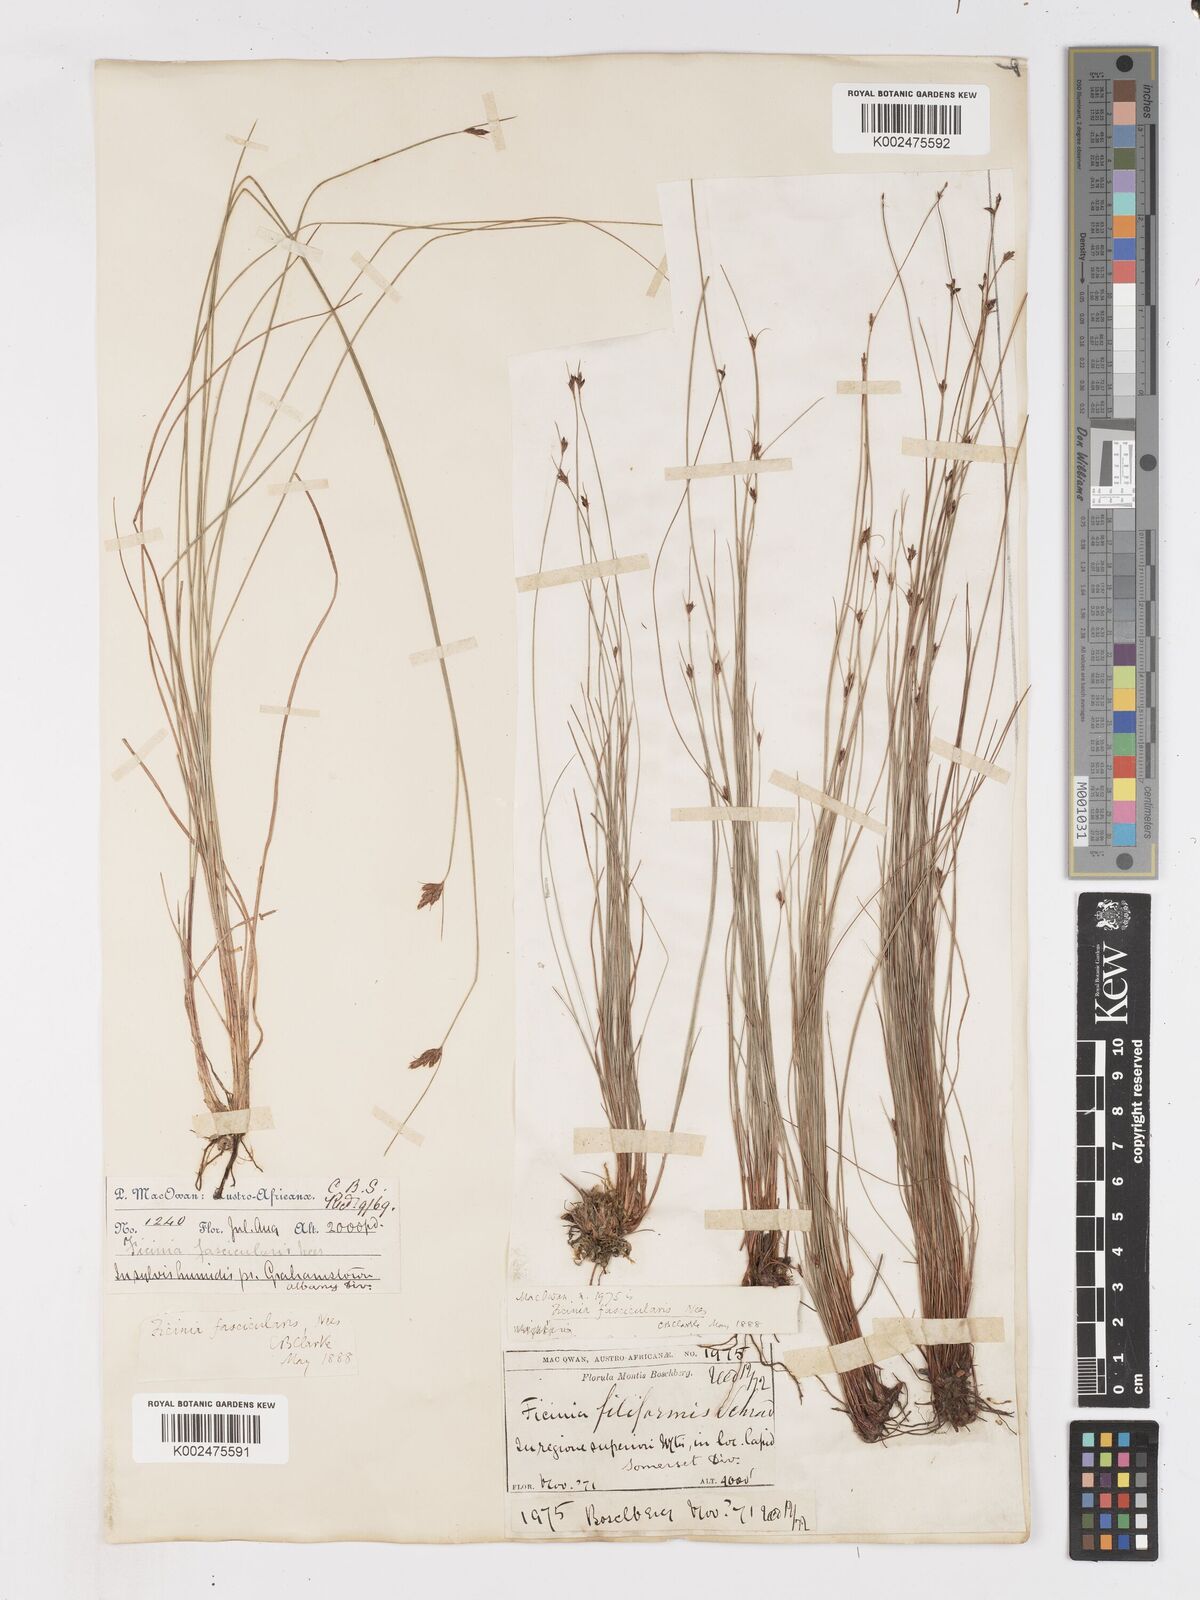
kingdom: Plantae
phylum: Tracheophyta
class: Liliopsida
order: Poales
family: Cyperaceae
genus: Ficinia
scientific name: Ficinia fascicularis
